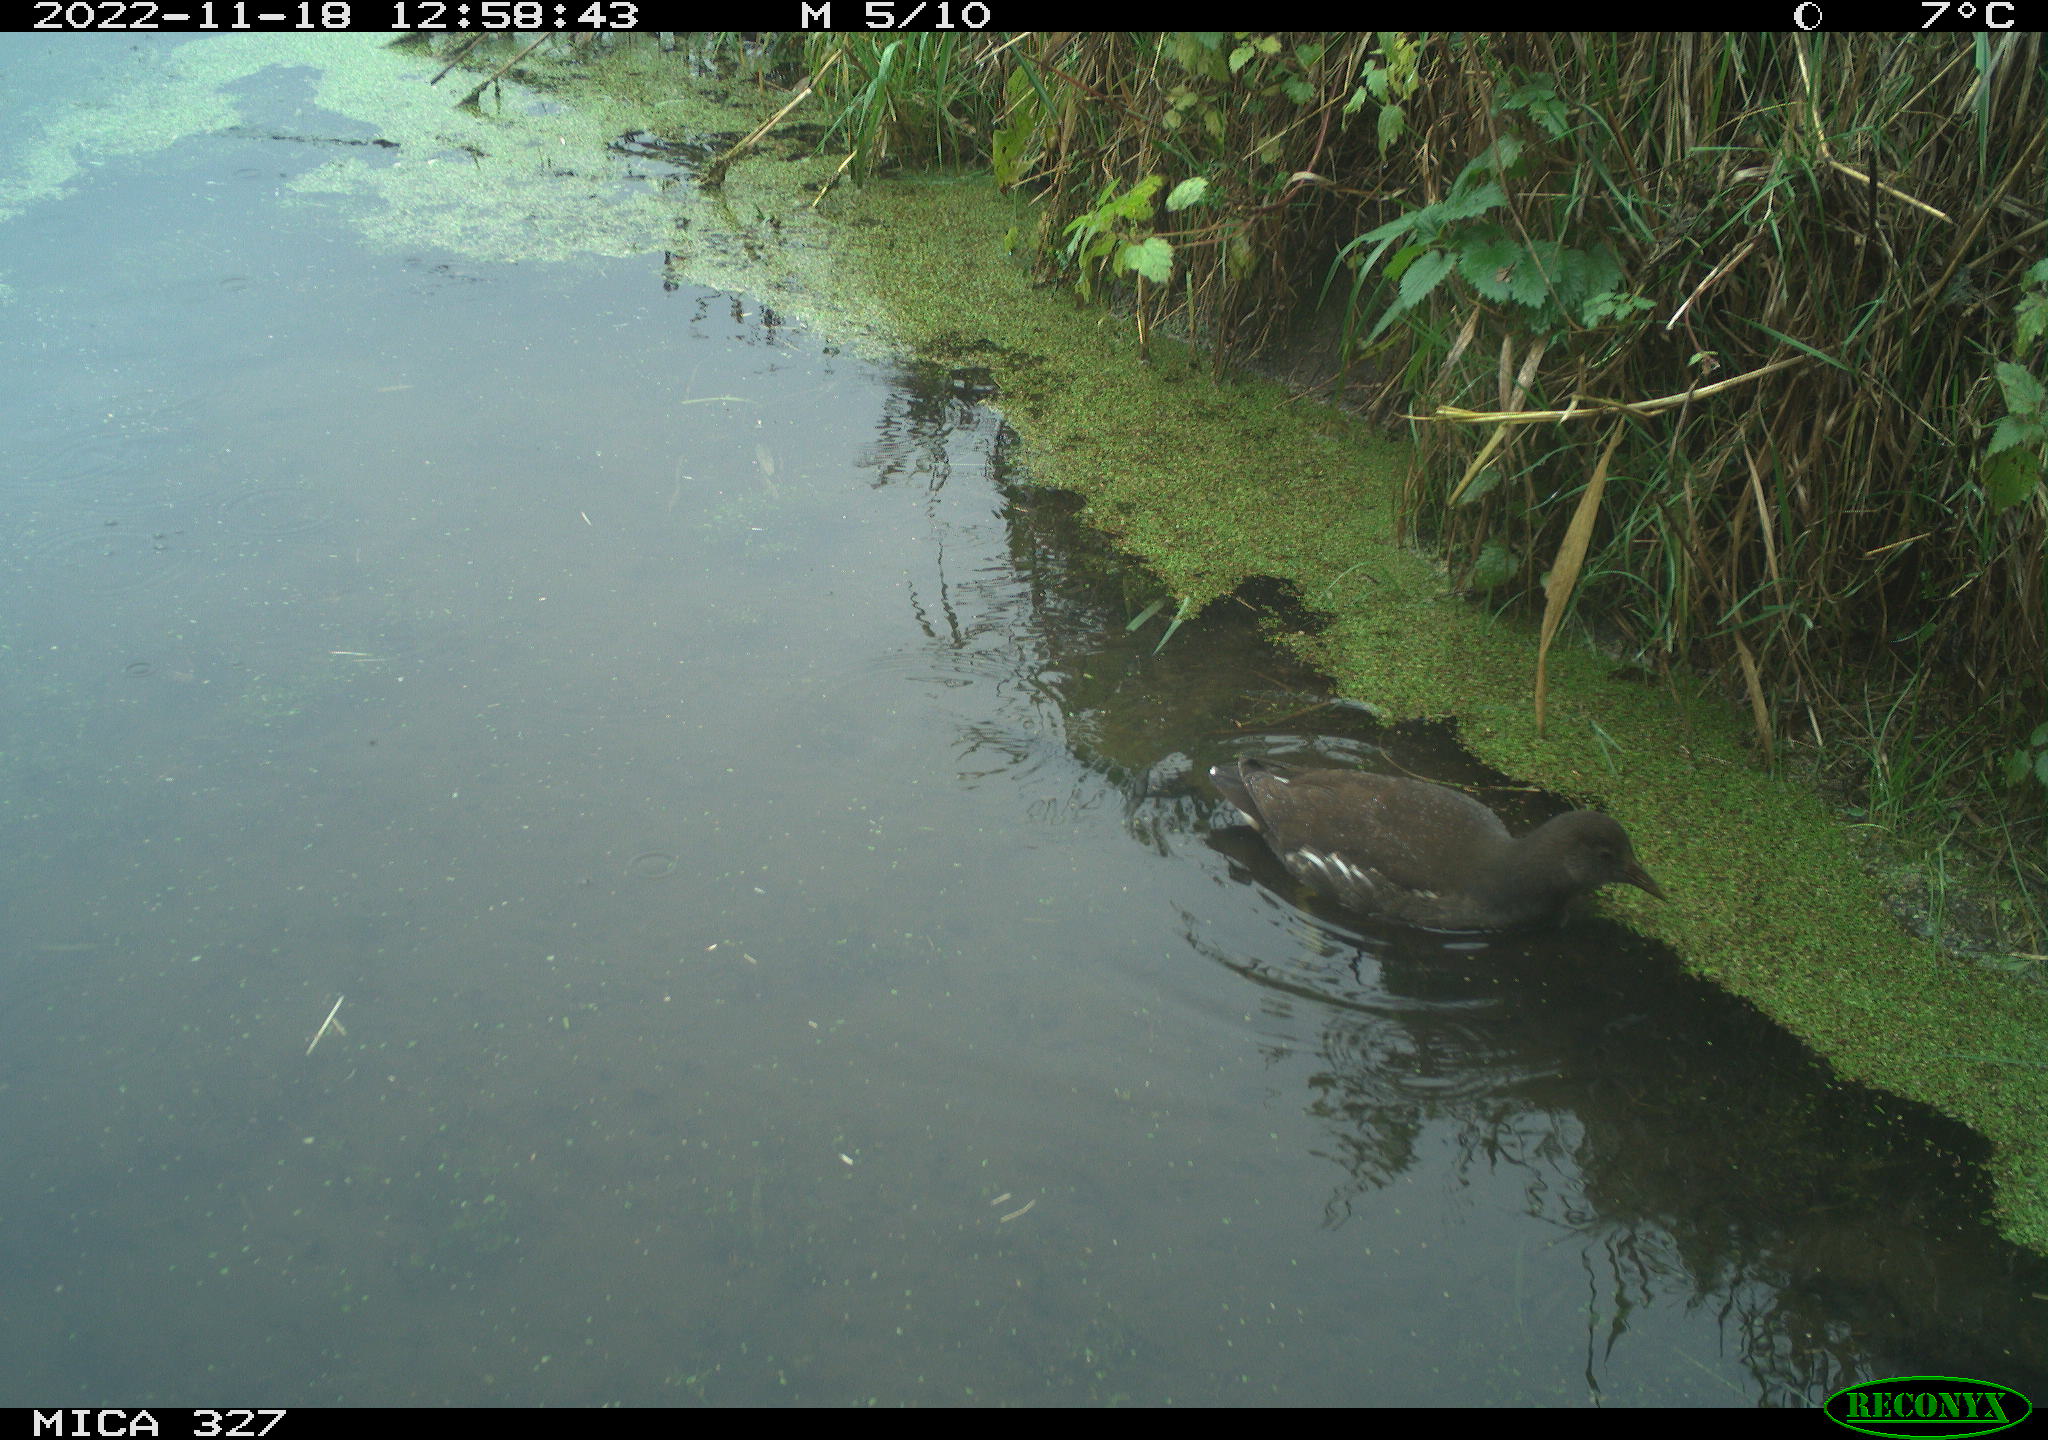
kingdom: Animalia
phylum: Chordata
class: Aves
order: Gruiformes
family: Rallidae
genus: Gallinula
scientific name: Gallinula chloropus
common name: Common moorhen
